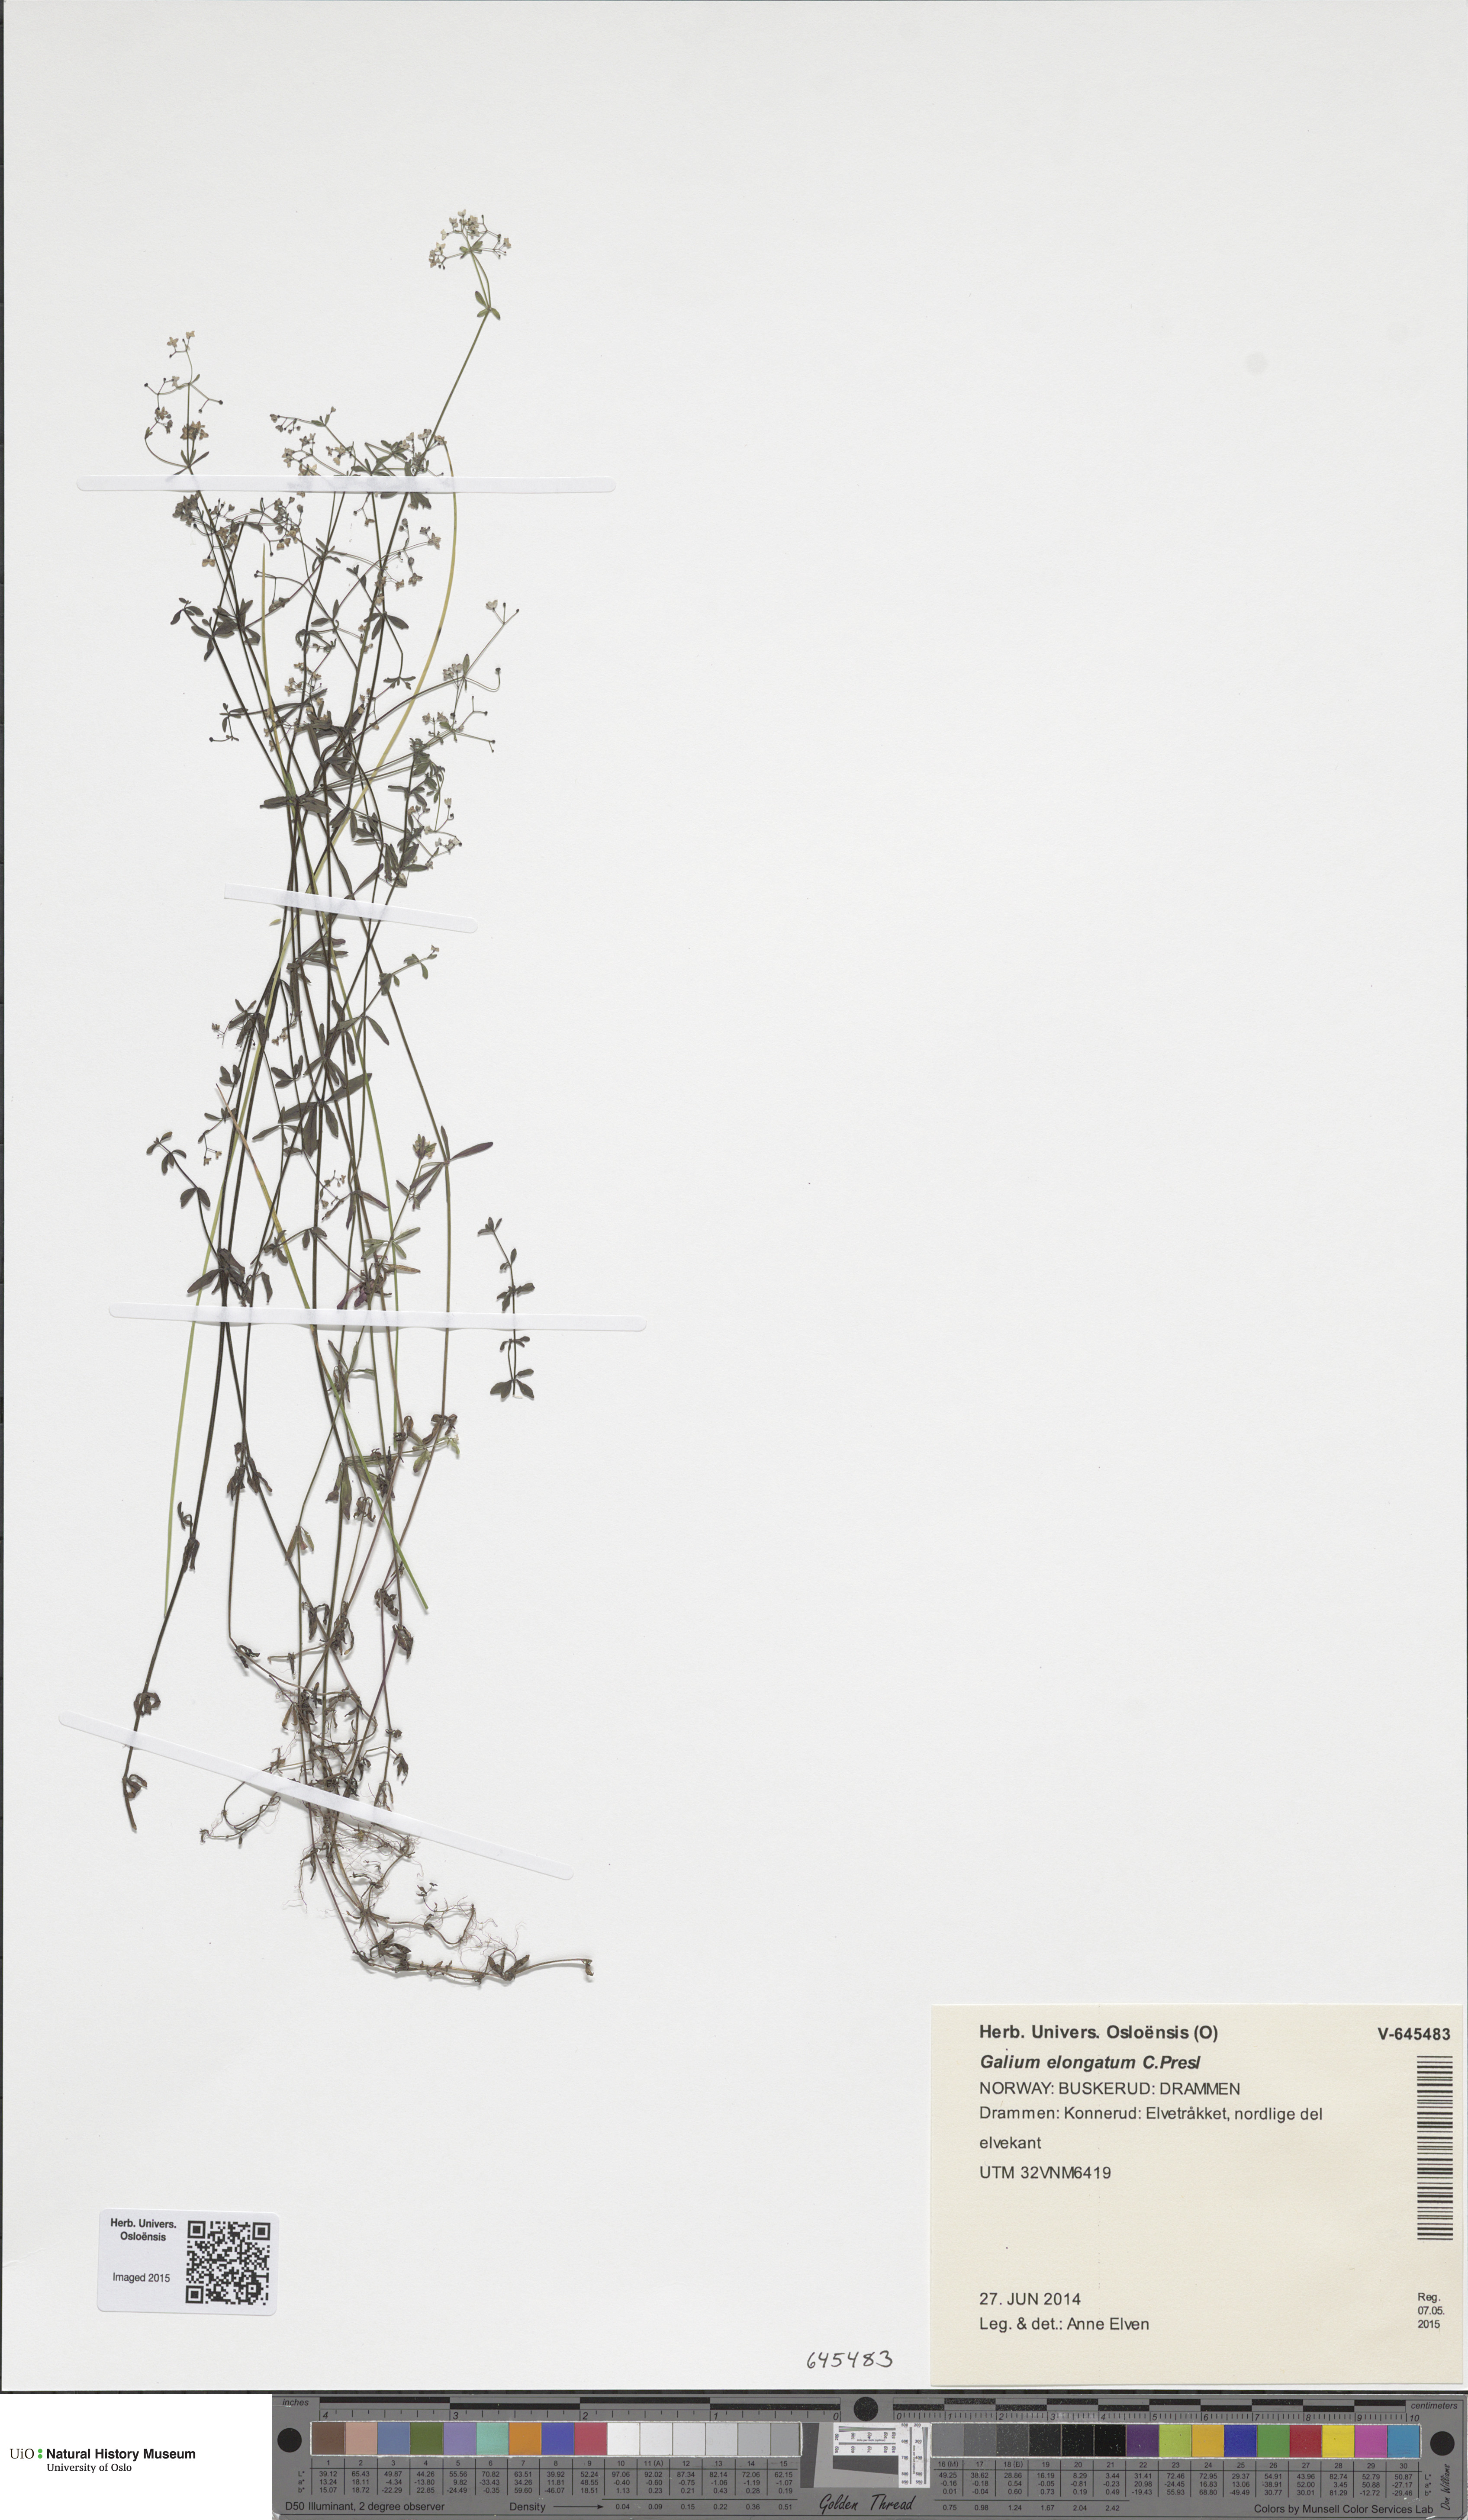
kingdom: Plantae
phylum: Tracheophyta
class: Magnoliopsida
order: Gentianales
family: Rubiaceae
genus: Galium
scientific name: Galium elongatum
